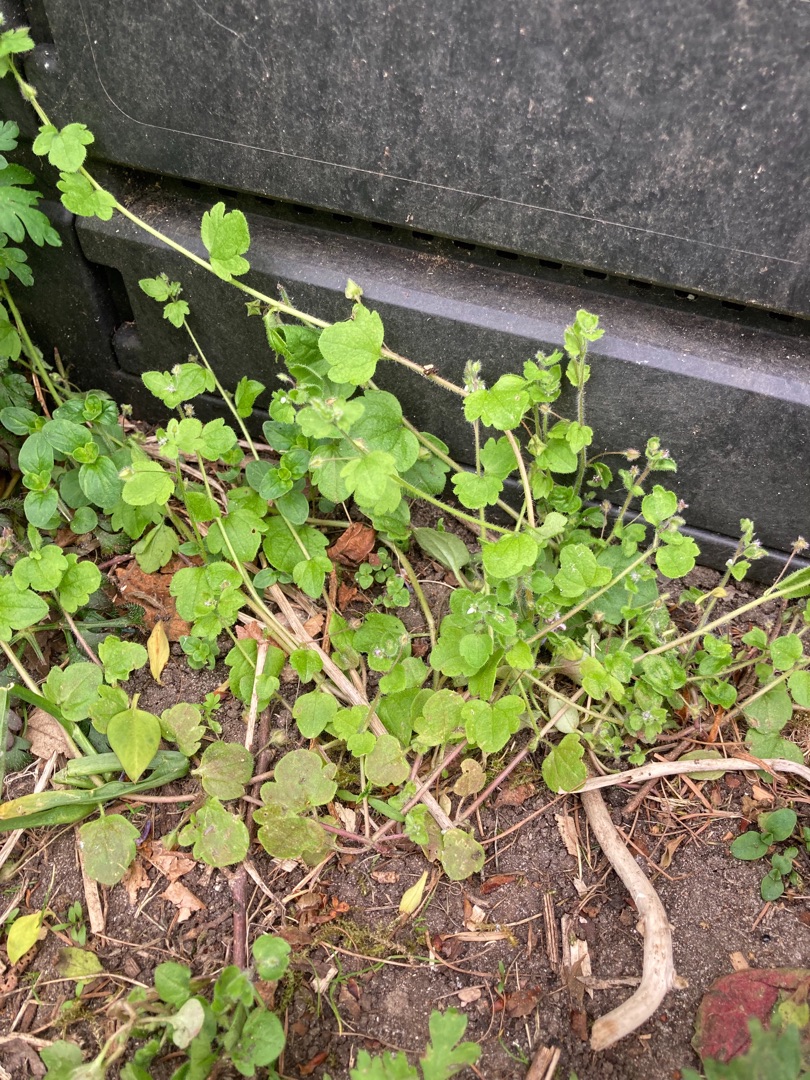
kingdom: Plantae
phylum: Tracheophyta
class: Magnoliopsida
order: Lamiales
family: Plantaginaceae
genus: Veronica
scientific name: Veronica sublobata
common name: Krat-ærenpris
